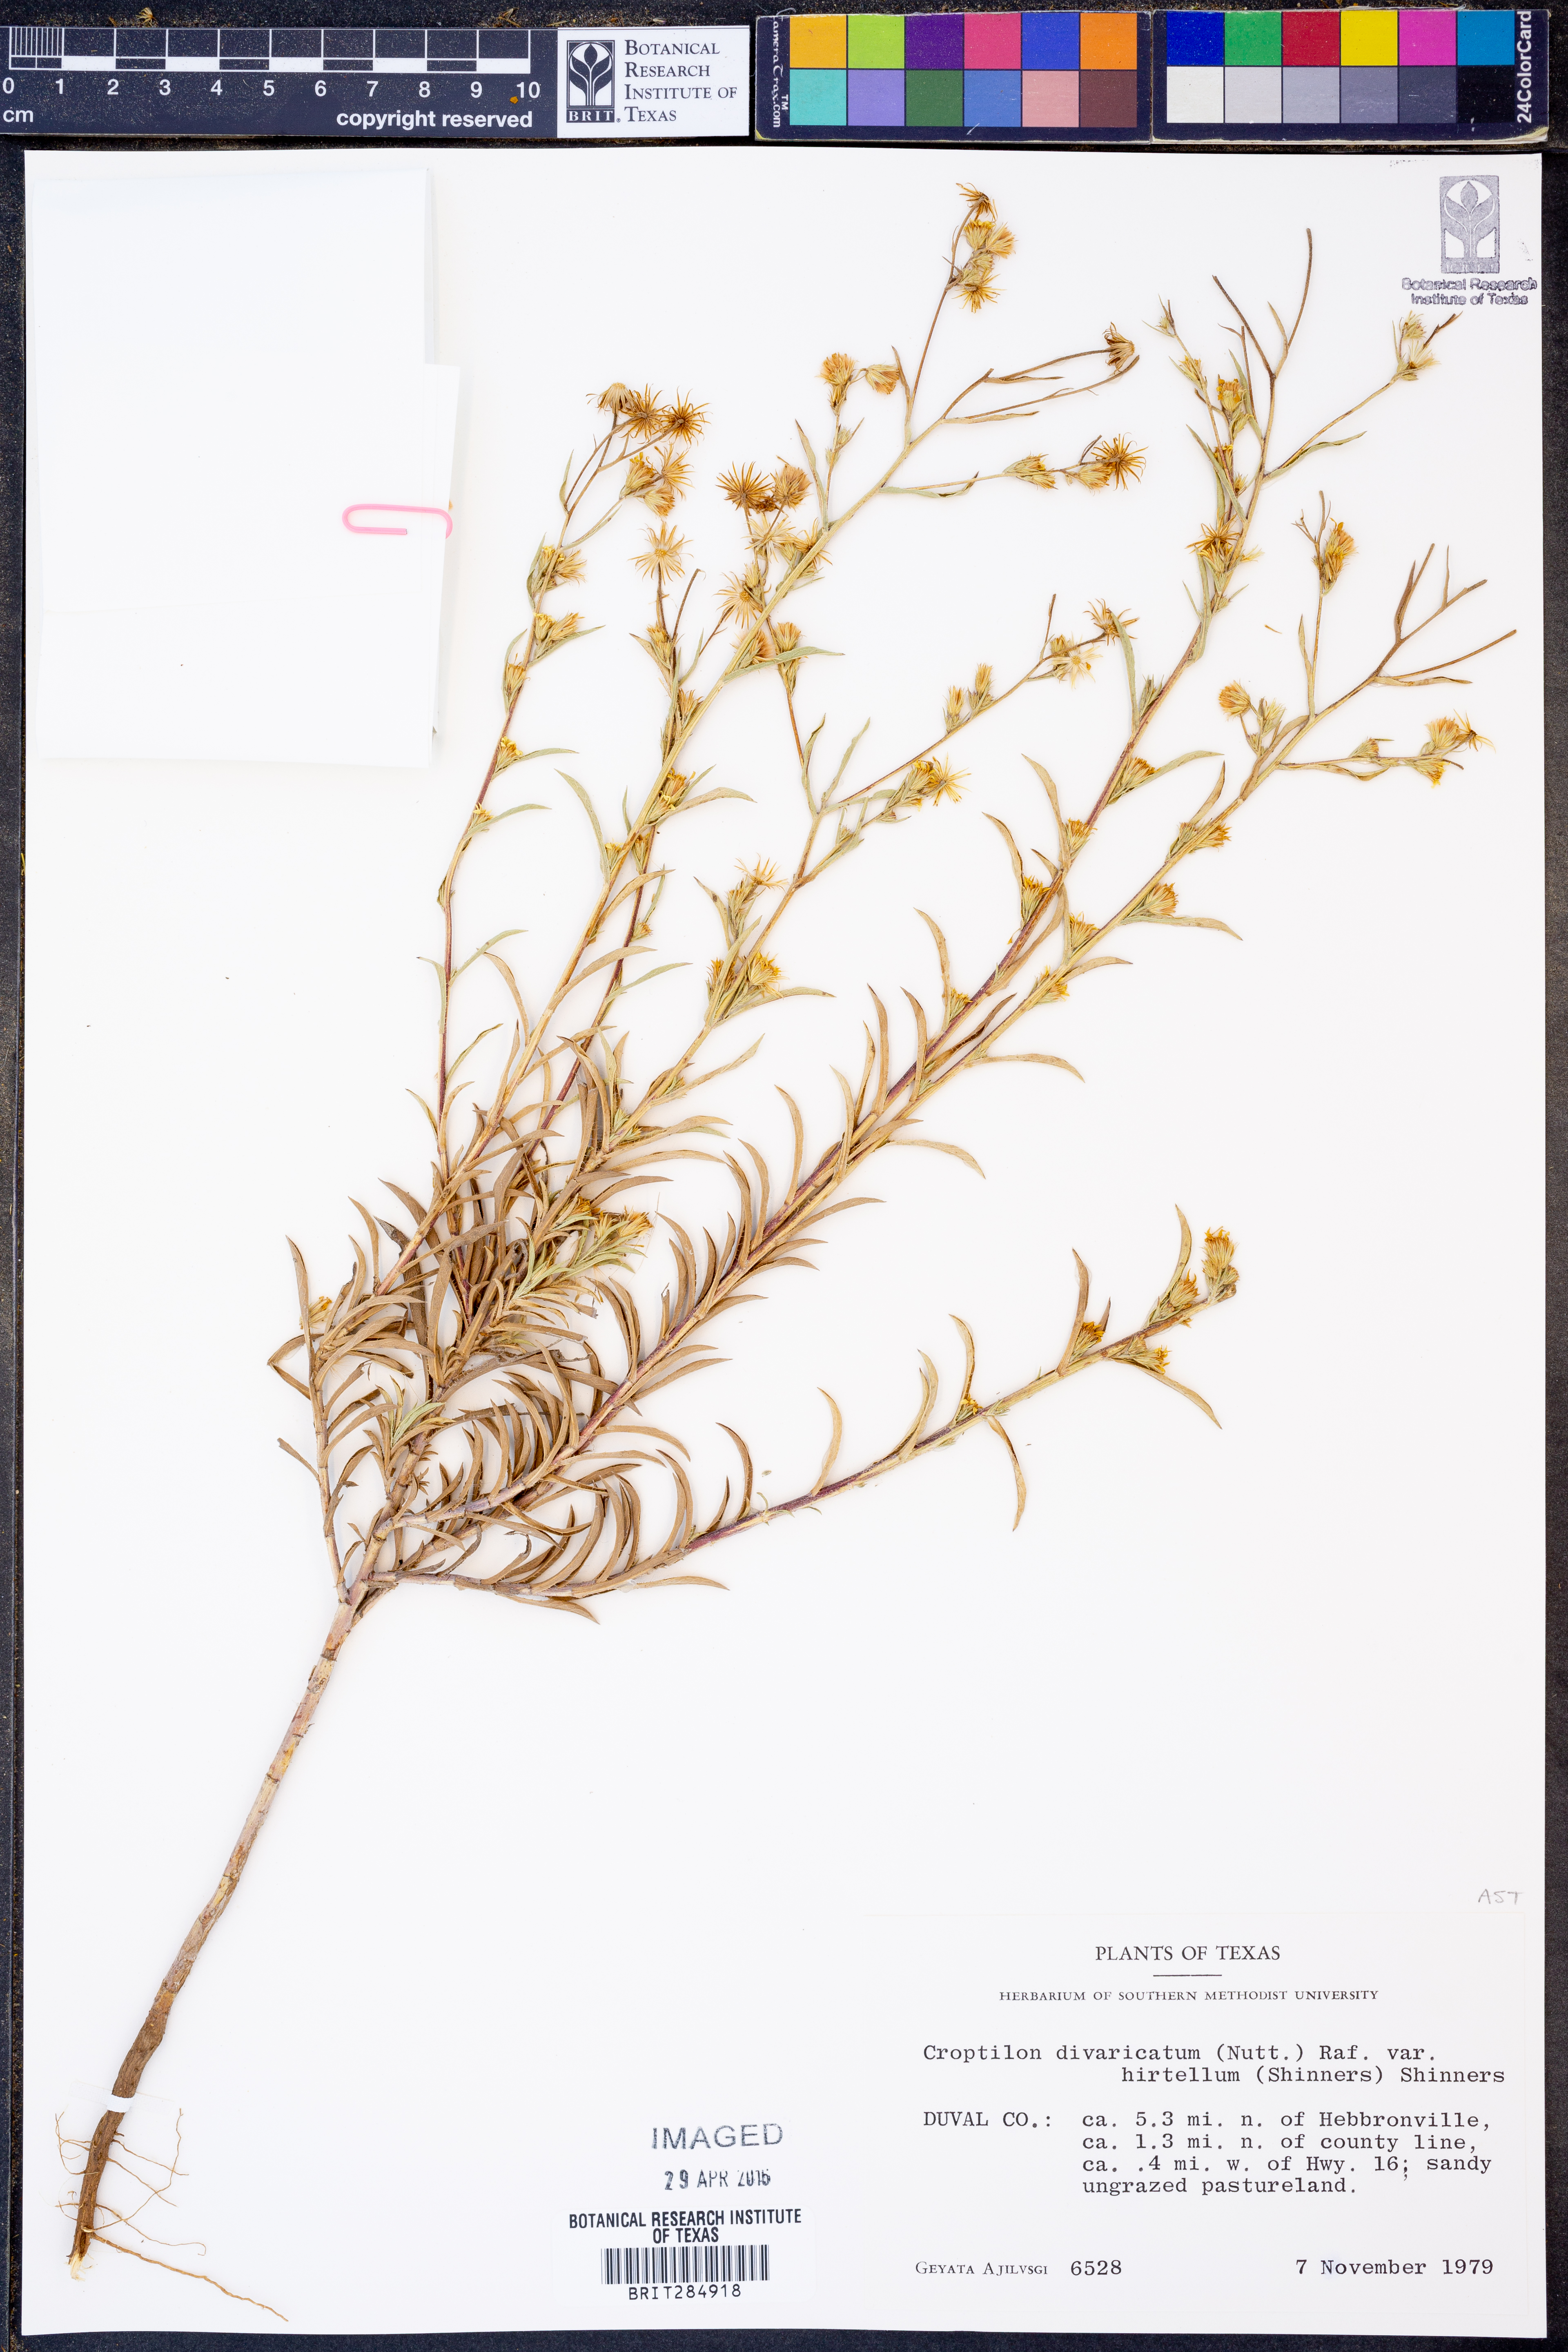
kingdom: Plantae
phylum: Tracheophyta
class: Magnoliopsida
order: Asterales
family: Asteraceae
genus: Croptilon
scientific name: Croptilon rigidifolium
